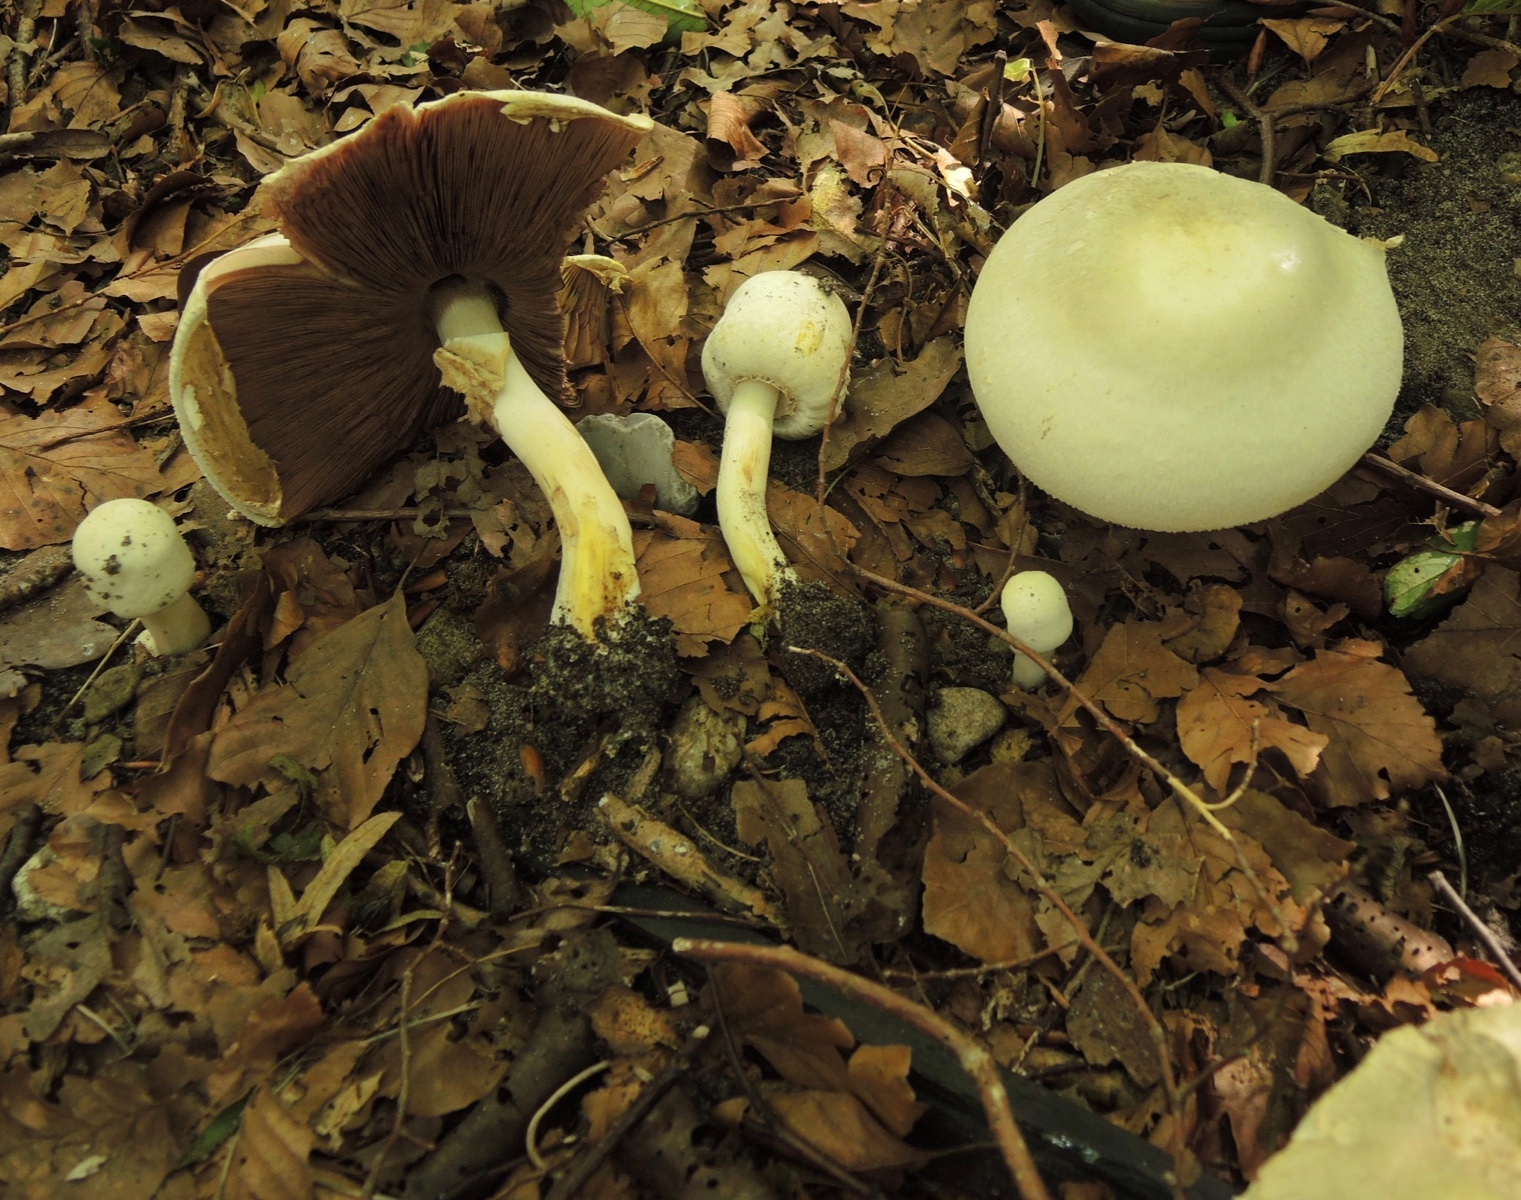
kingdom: Fungi
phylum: Basidiomycota
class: Agaricomycetes
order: Agaricales
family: Agaricaceae
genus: Agaricus
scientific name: Agaricus xanthodermus
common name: karbol-champignon
